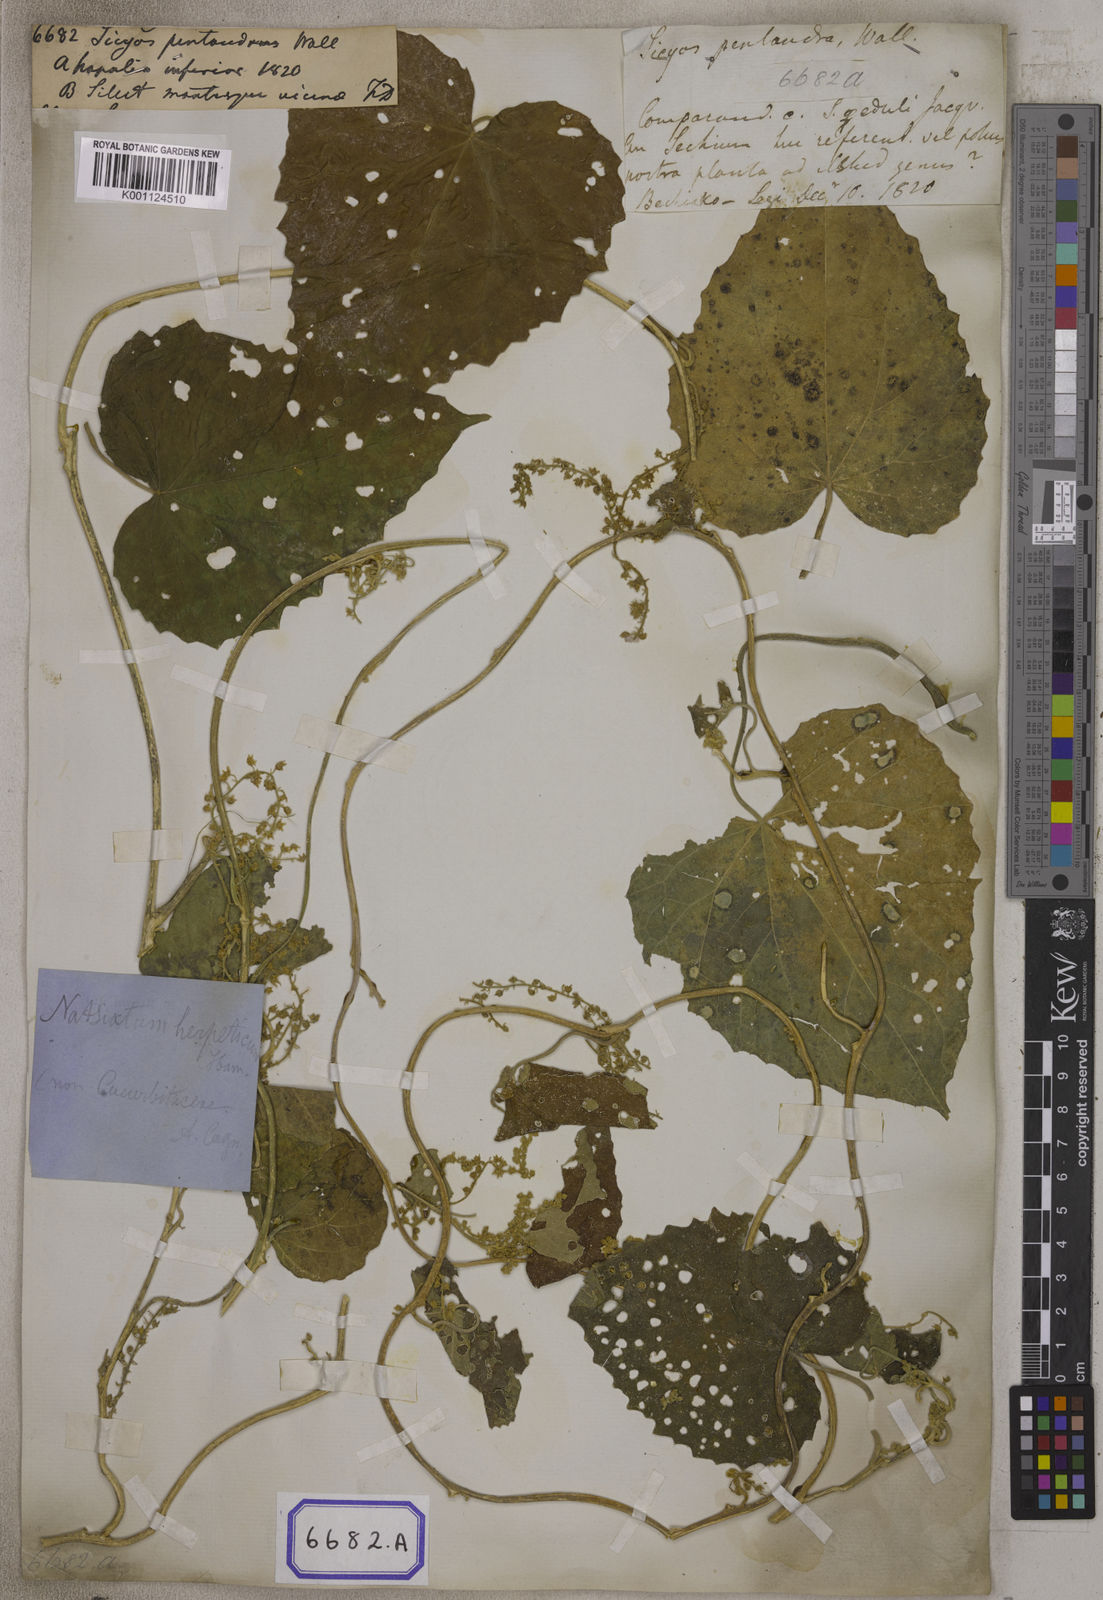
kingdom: Plantae
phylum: Tracheophyta
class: Magnoliopsida
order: Cucurbitales
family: Cucurbitaceae
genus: Sicyos
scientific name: Sicyos
